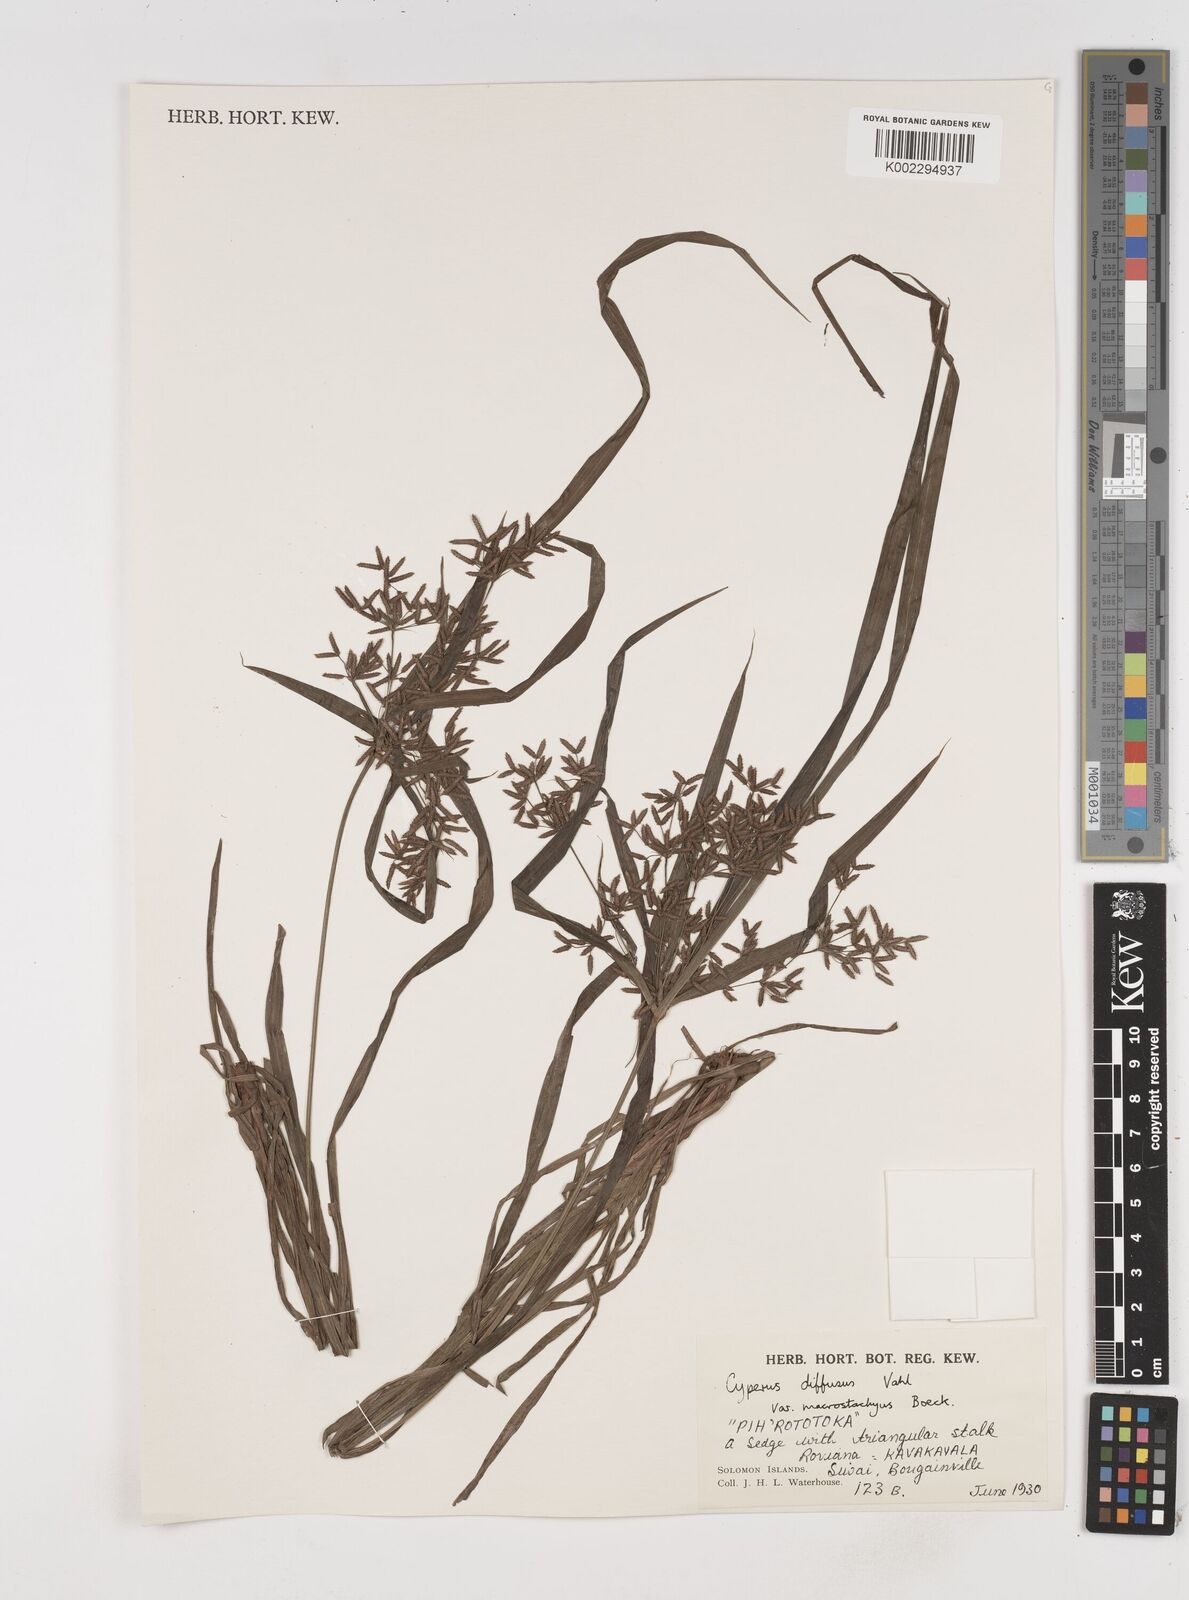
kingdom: Plantae
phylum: Tracheophyta
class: Liliopsida
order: Poales
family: Cyperaceae
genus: Cyperus
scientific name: Cyperus diffusus
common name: Dwarf umbrella grass
